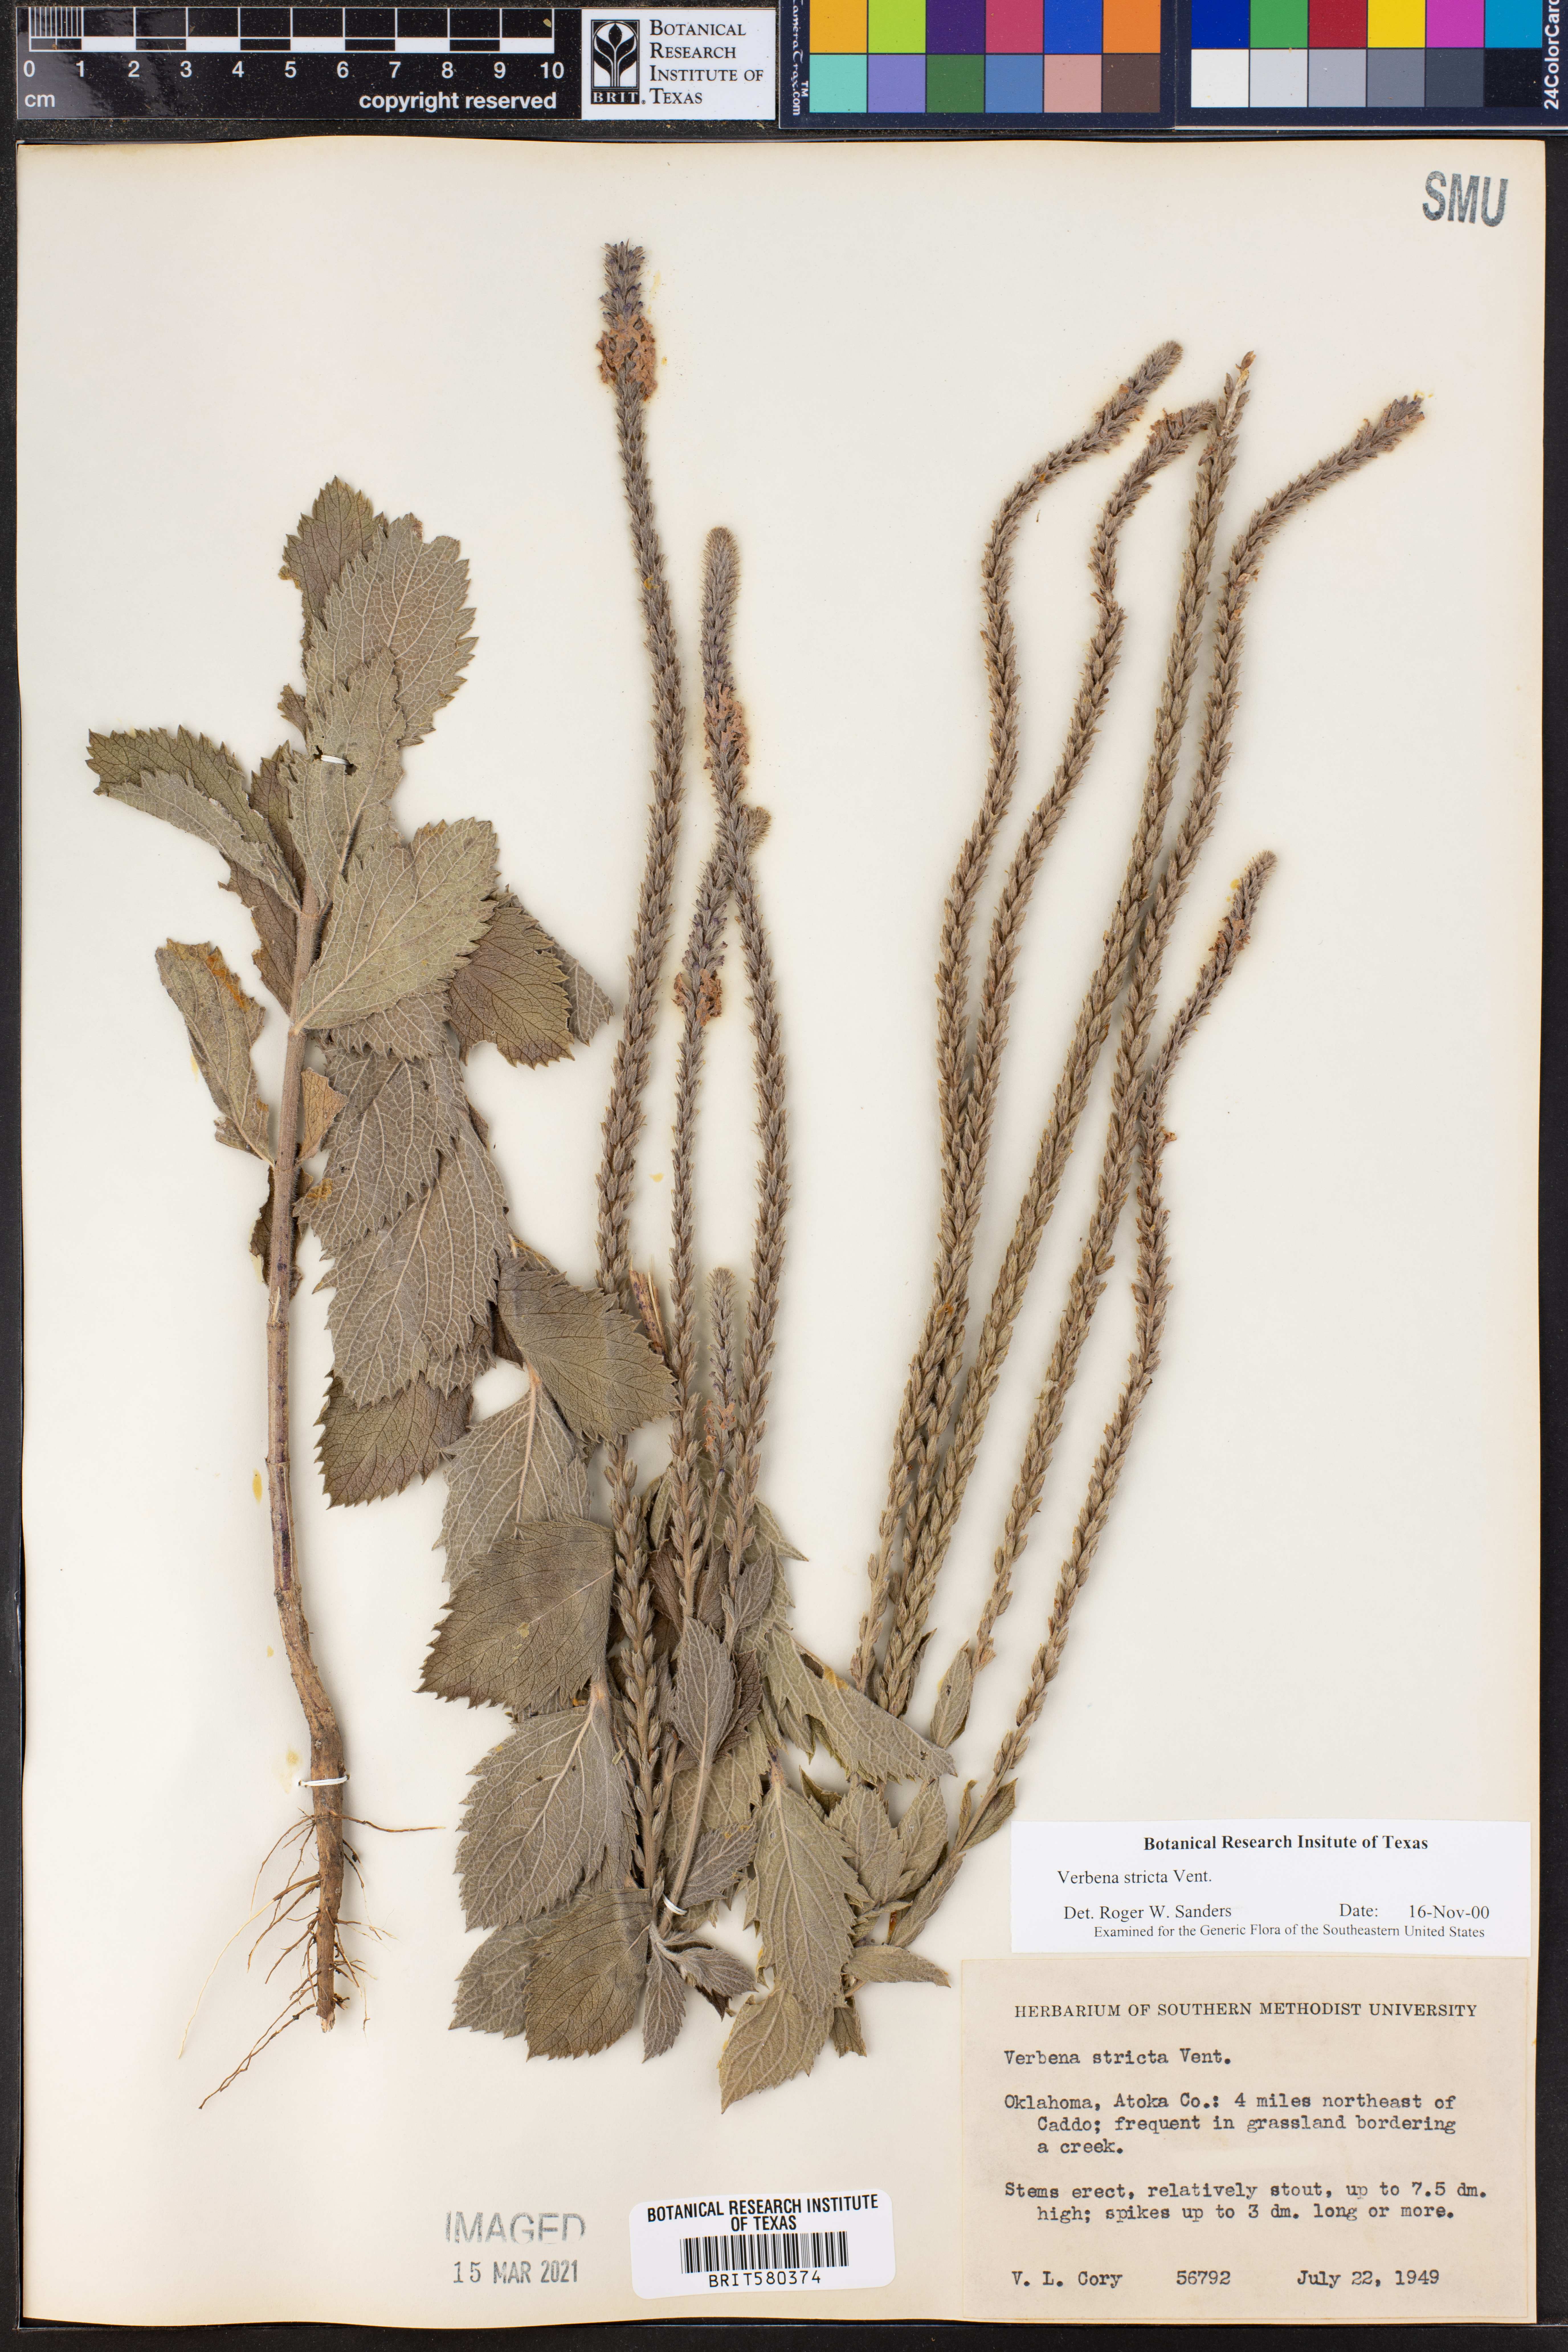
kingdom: Plantae
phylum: Tracheophyta
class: Magnoliopsida
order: Lamiales
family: Verbenaceae
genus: Verbena
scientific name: Verbena stricta
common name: Hoary vervain
